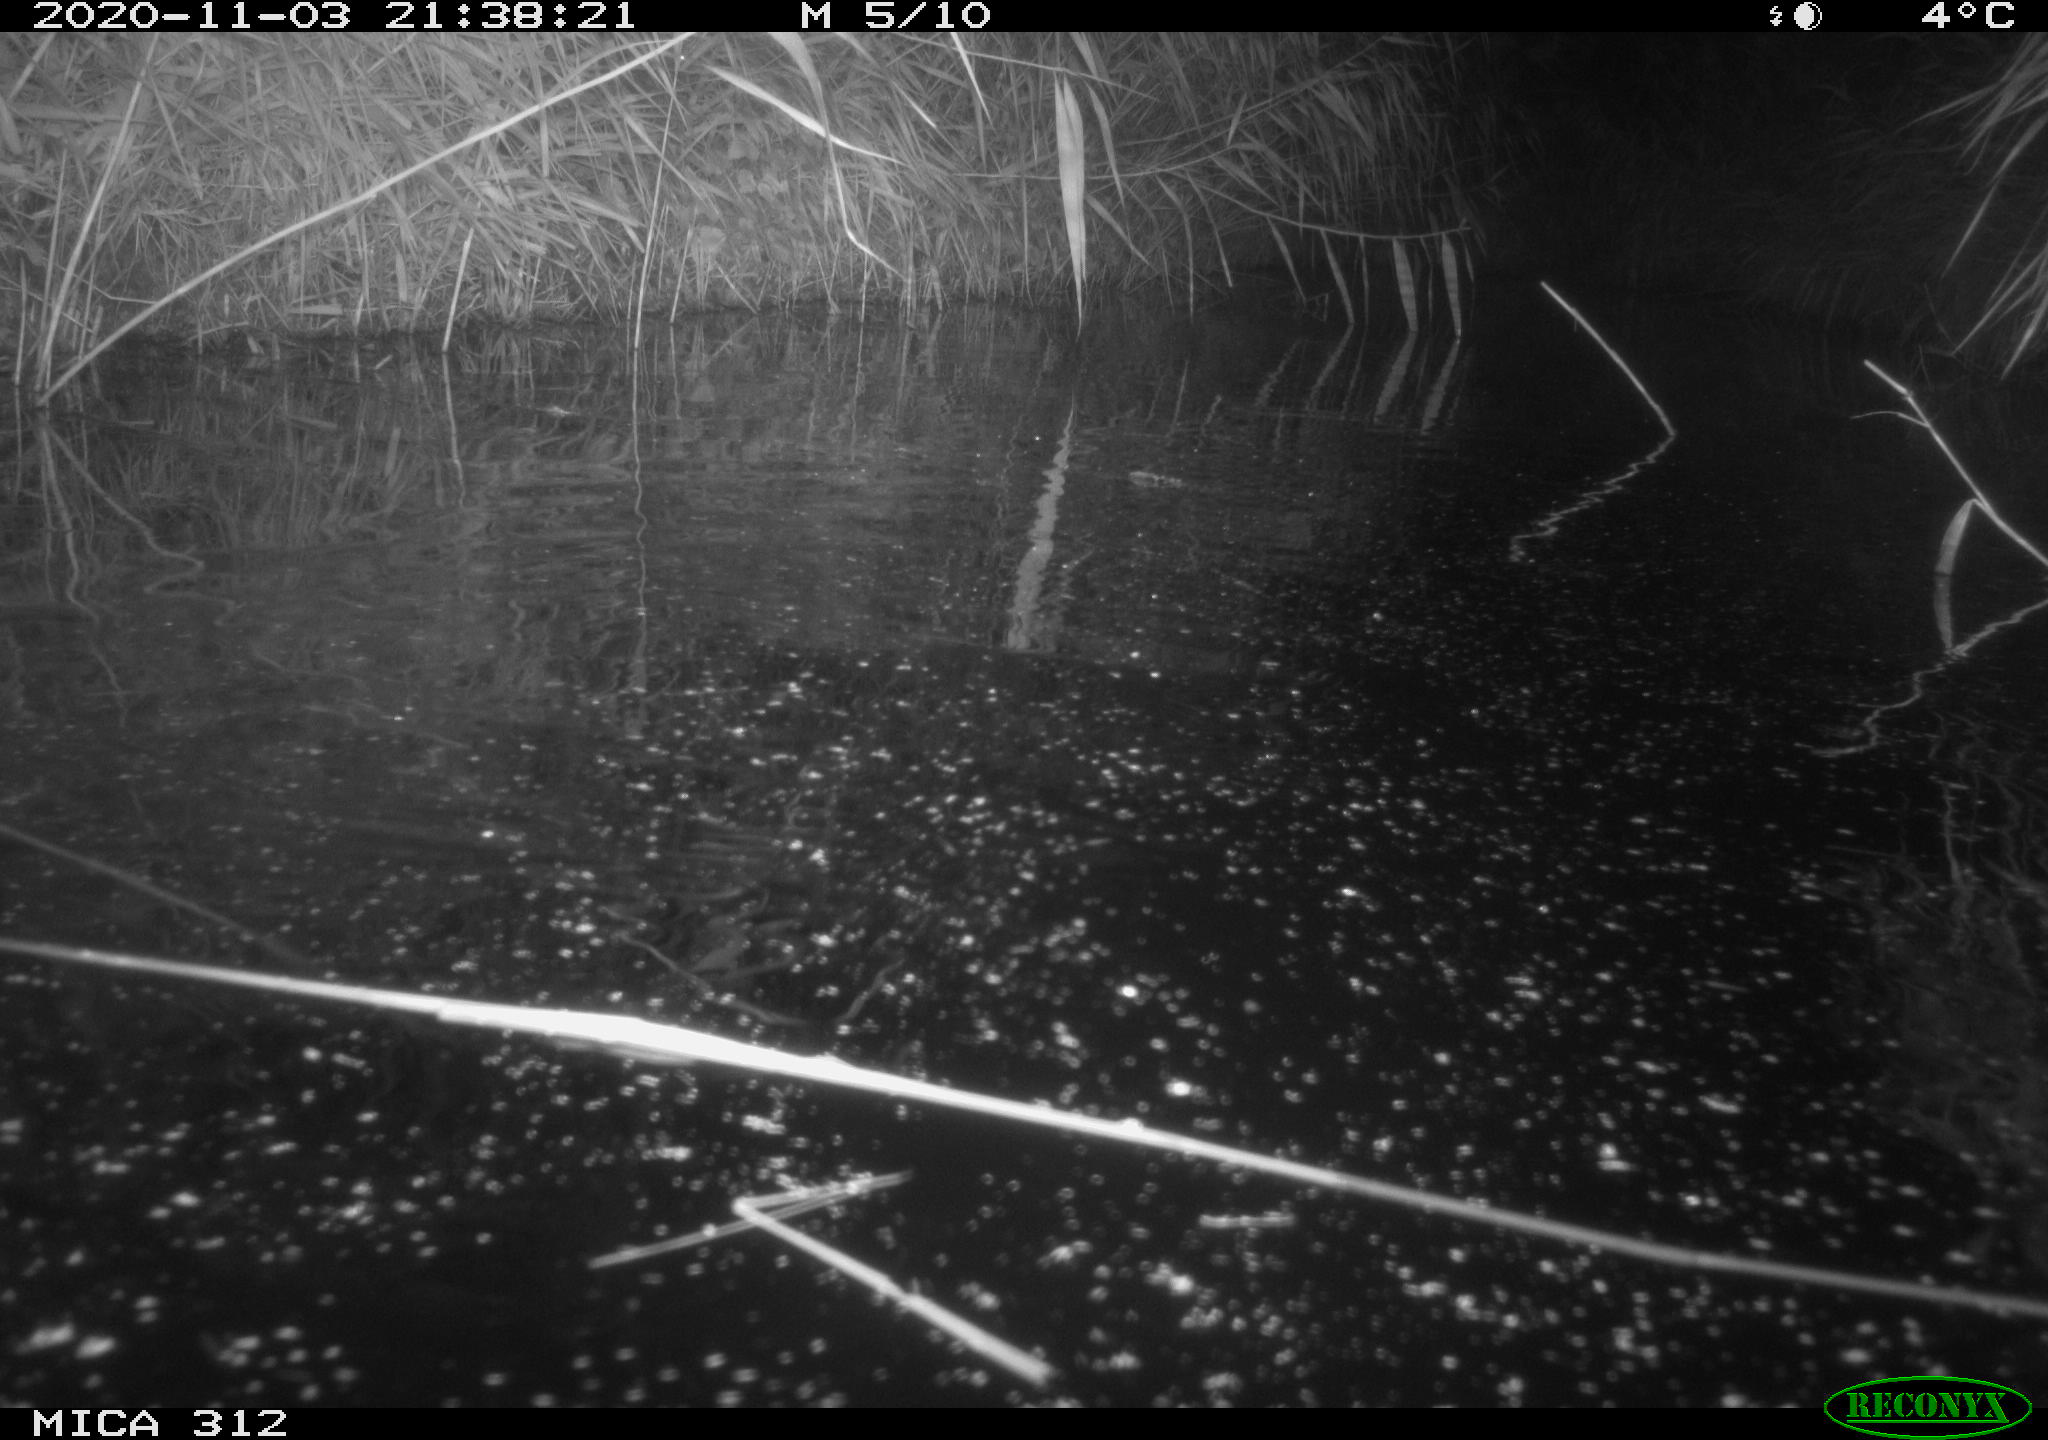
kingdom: Animalia
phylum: Chordata
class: Mammalia
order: Rodentia
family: Cricetidae
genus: Ondatra
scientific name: Ondatra zibethicus
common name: Muskrat
